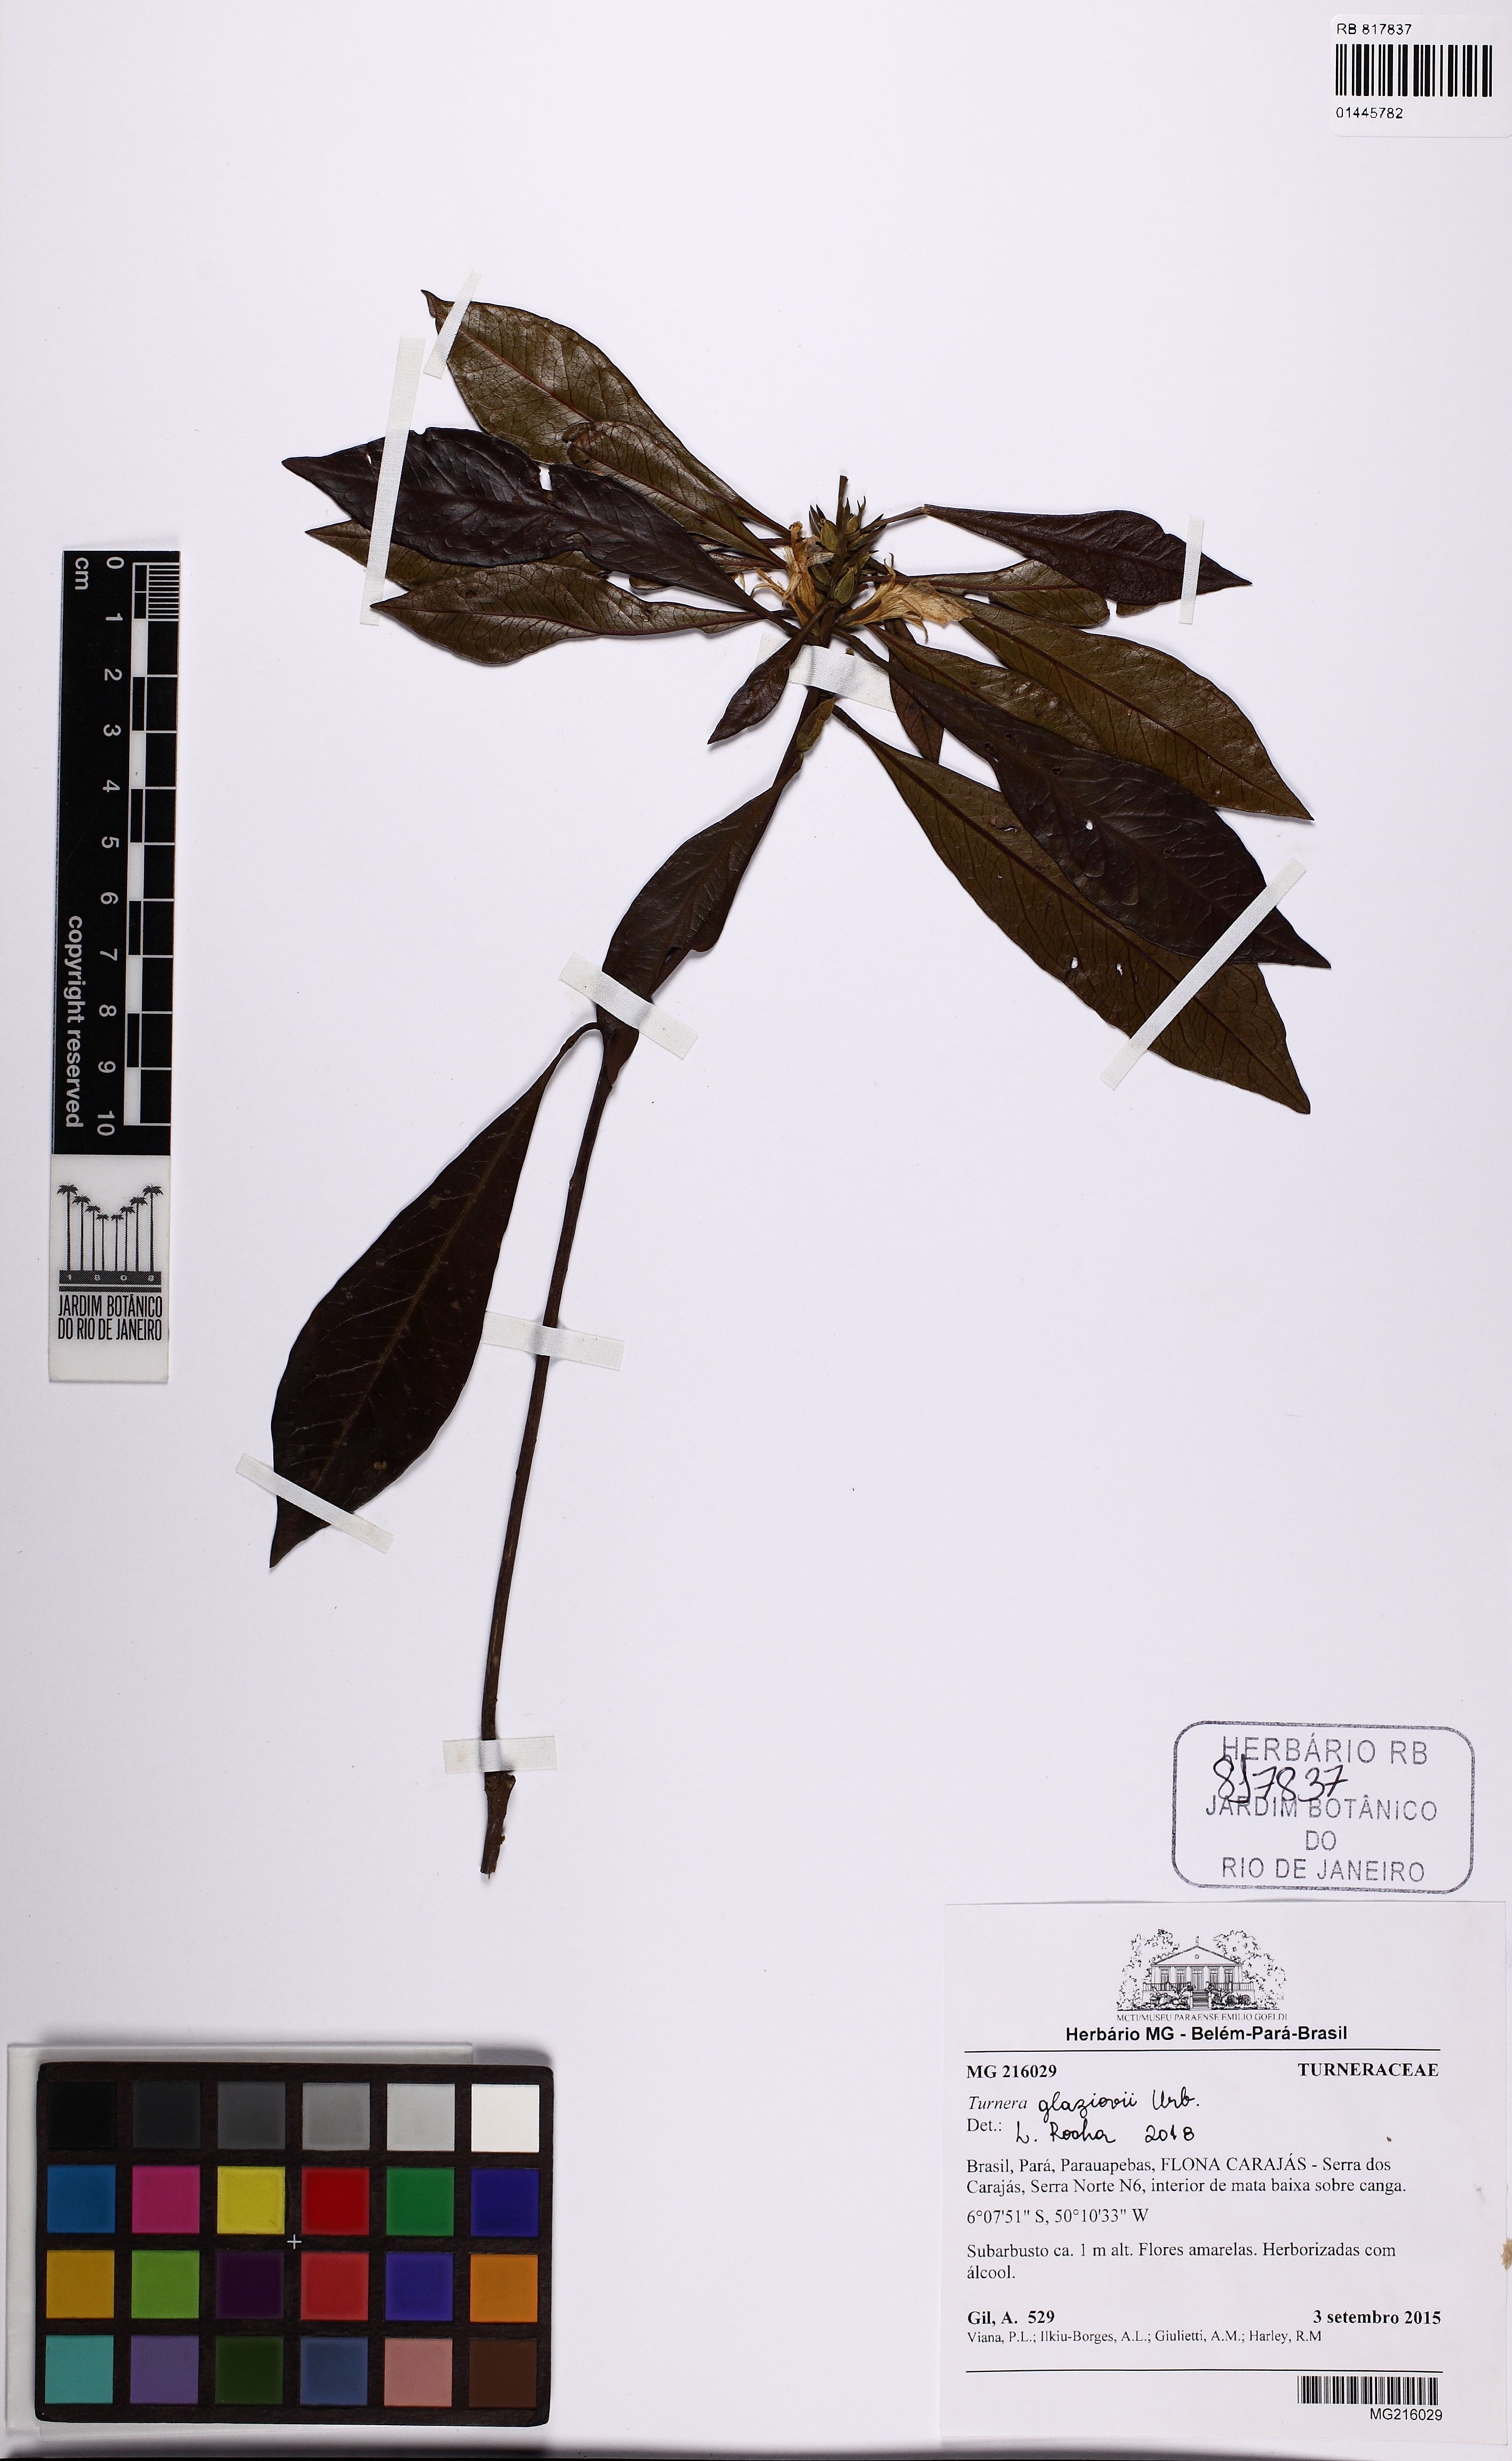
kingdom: Plantae
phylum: Tracheophyta
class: Magnoliopsida
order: Malpighiales
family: Turneraceae
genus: Turnera
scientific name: Turnera glaziovii
